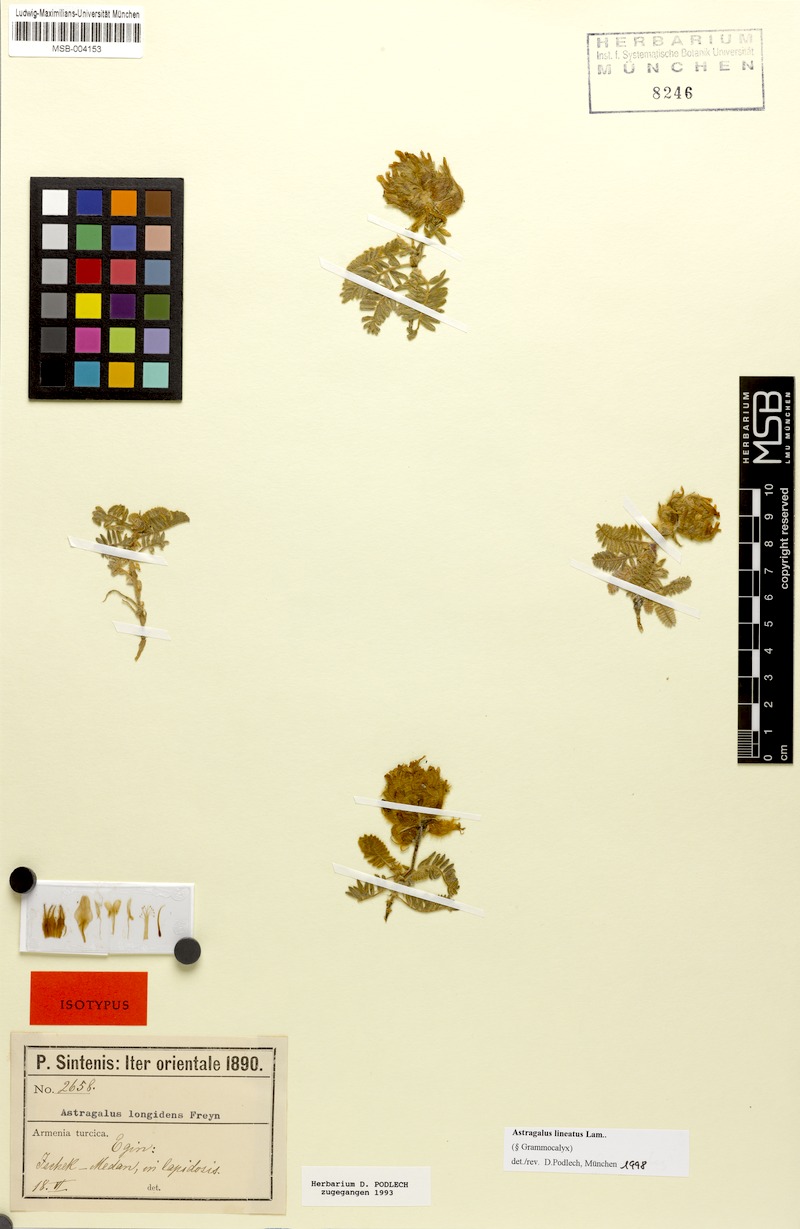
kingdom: Plantae
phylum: Tracheophyta
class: Magnoliopsida
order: Fabales
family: Fabaceae
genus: Astragalus
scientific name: Astragalus lineatus
